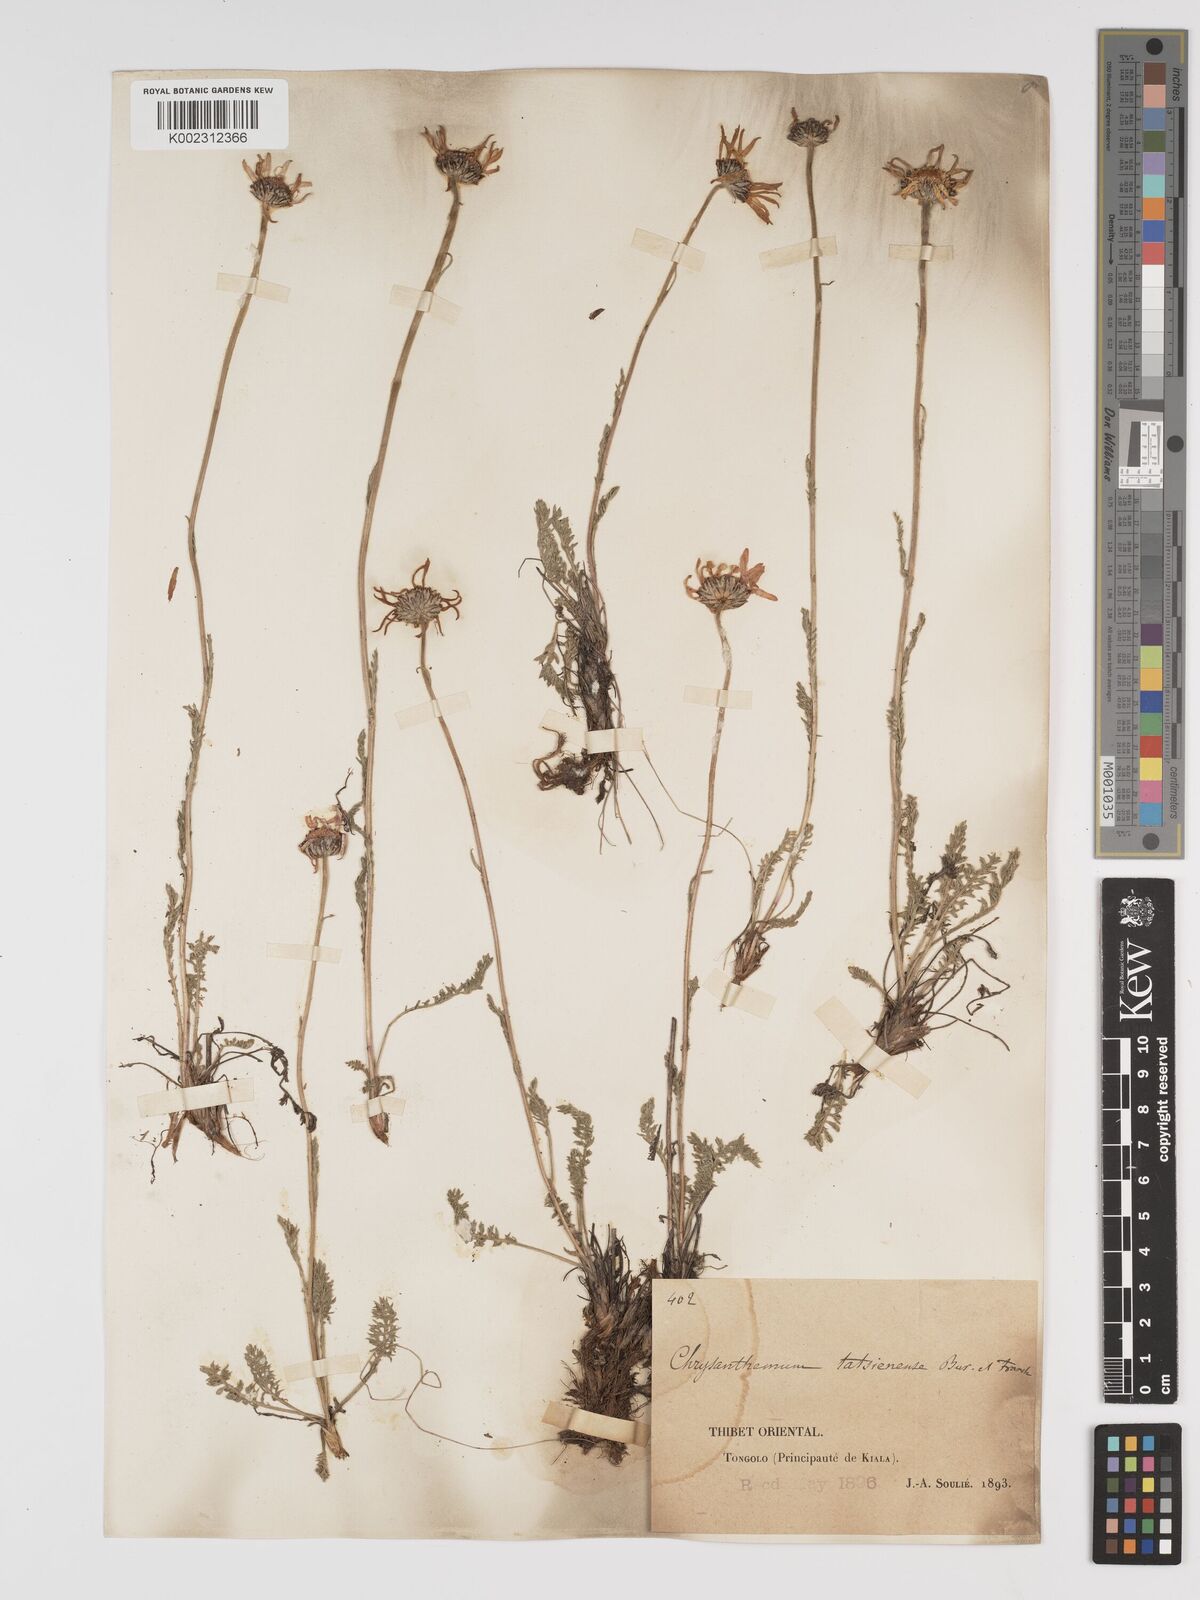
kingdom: Plantae
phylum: Tracheophyta
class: Magnoliopsida
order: Asterales
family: Asteraceae
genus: Tanacetum
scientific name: Tanacetum tatsienense
